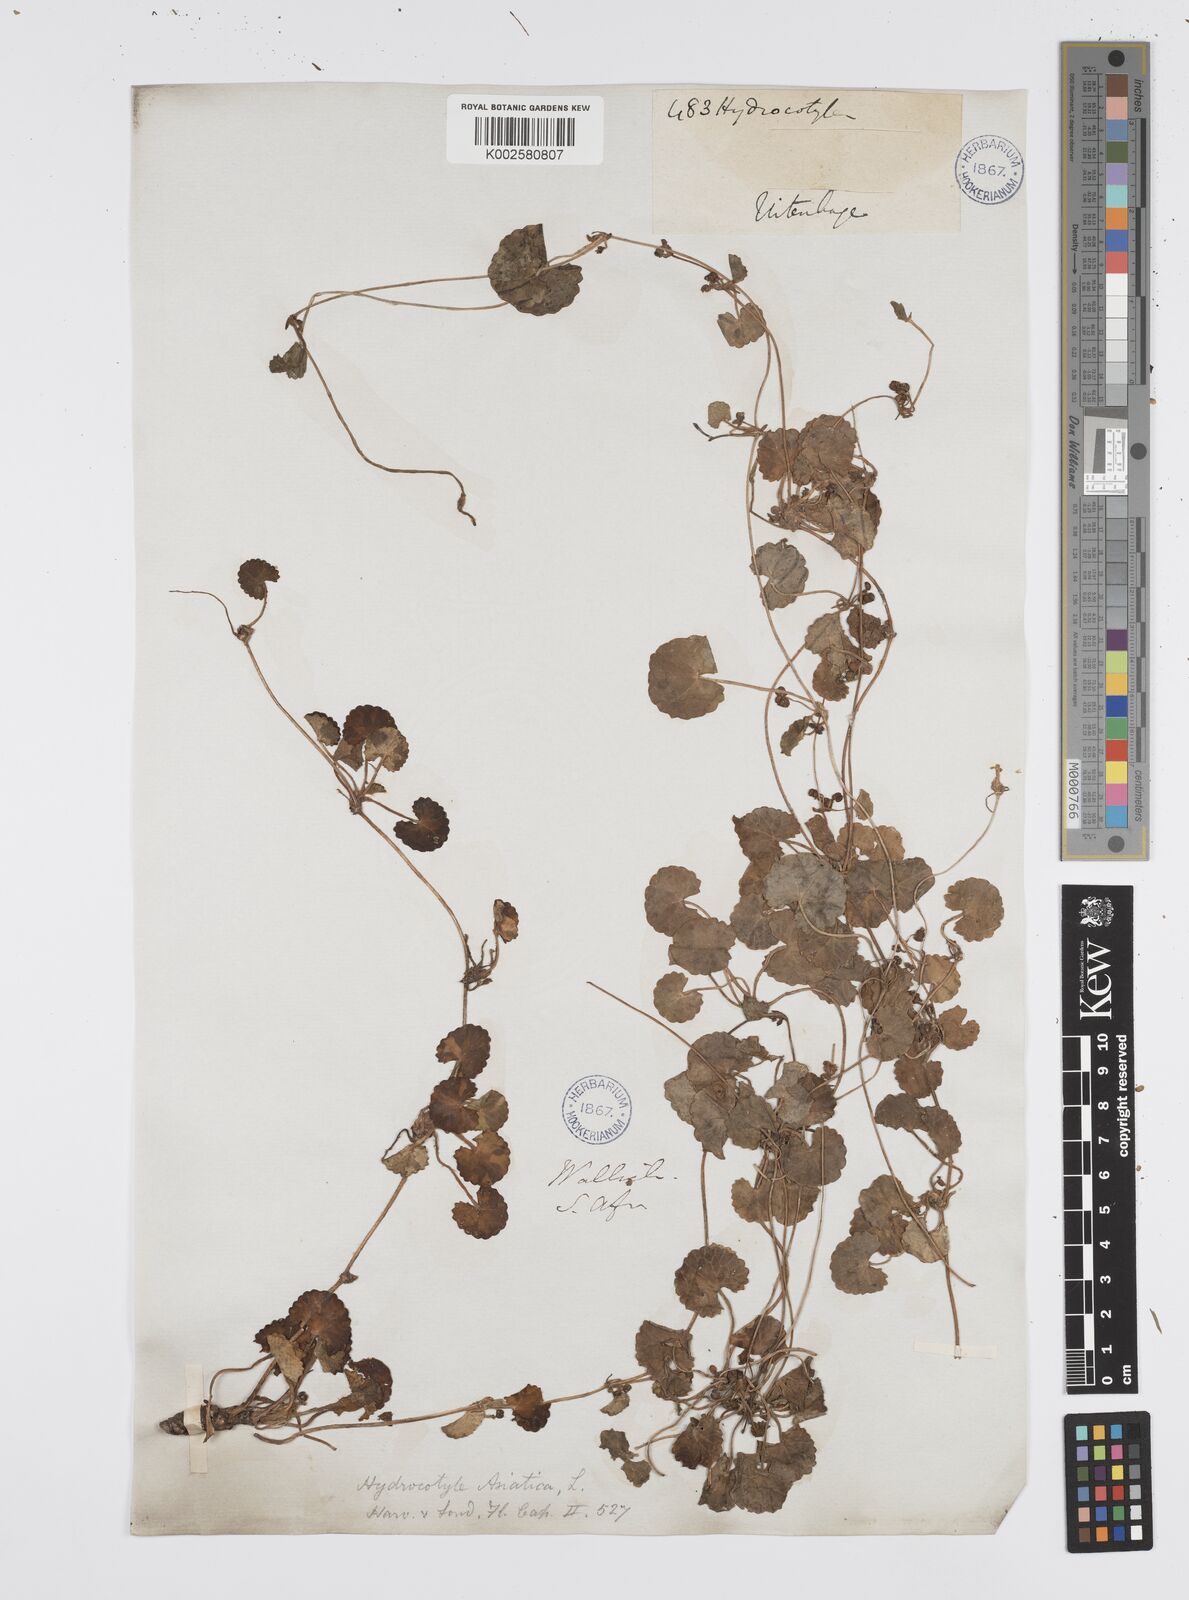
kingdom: Plantae
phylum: Tracheophyta
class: Magnoliopsida
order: Apiales
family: Apiaceae
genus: Centella
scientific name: Centella coriacea
